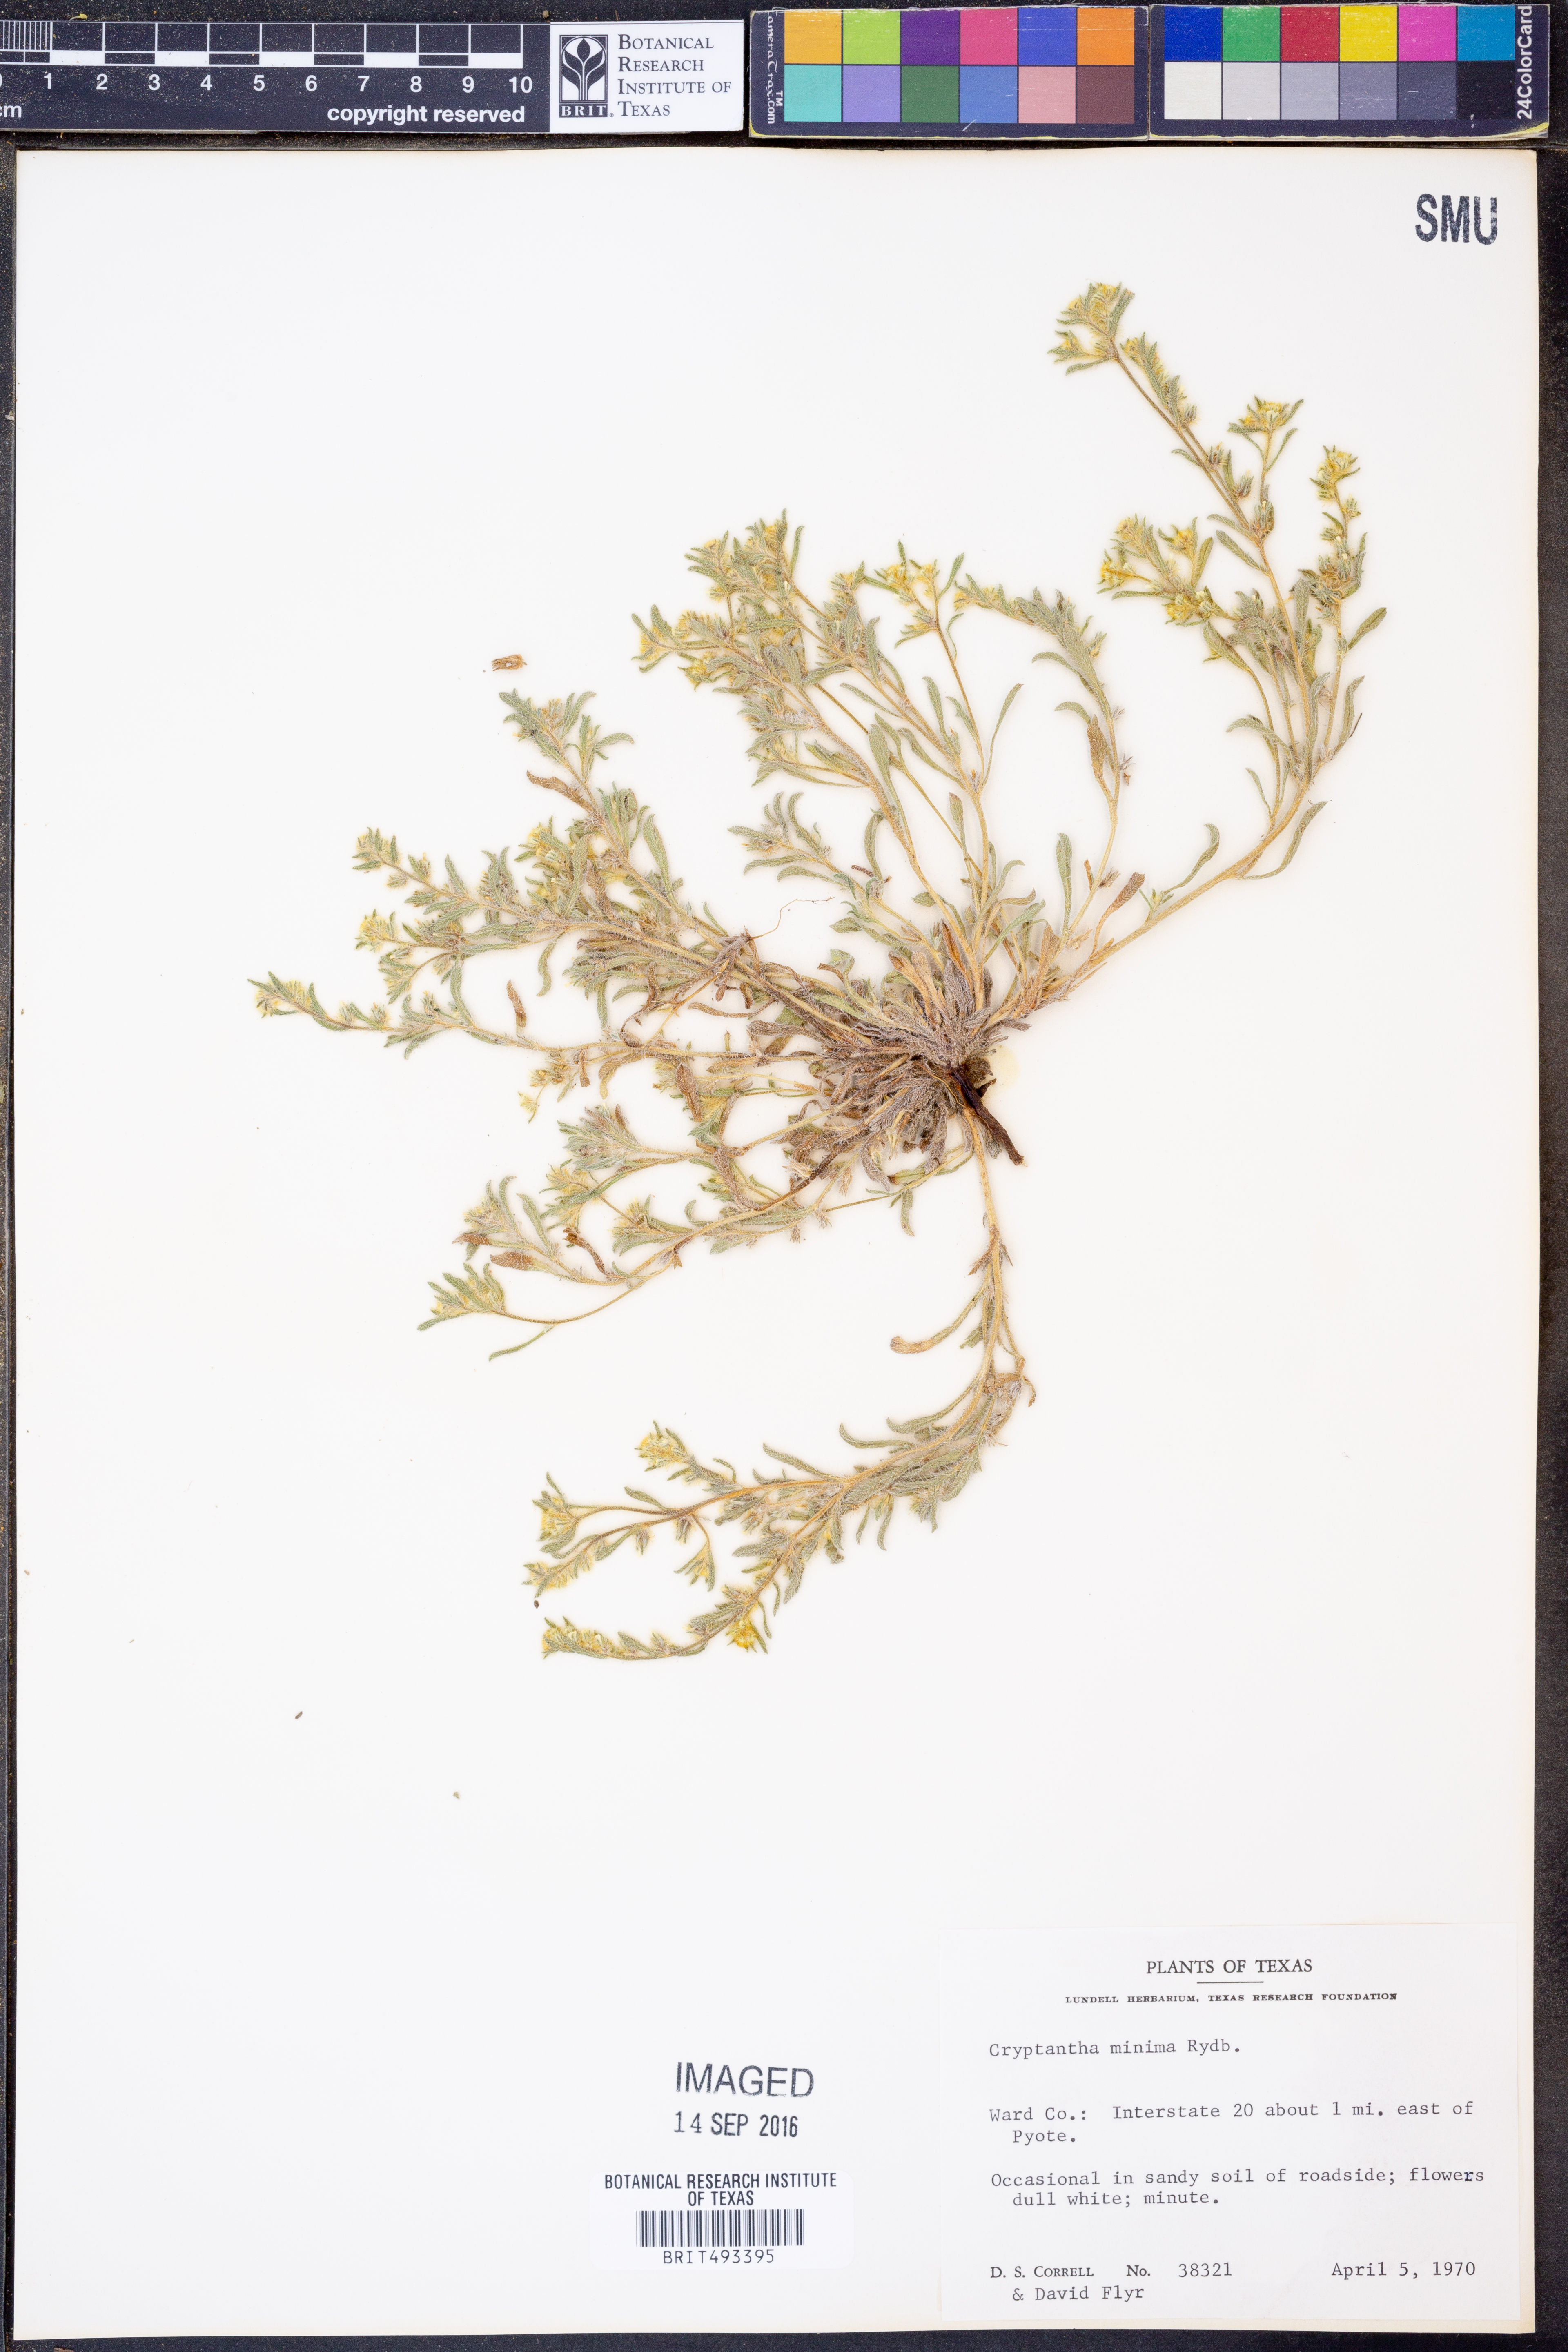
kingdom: Plantae
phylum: Tracheophyta
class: Magnoliopsida
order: Boraginales
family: Boraginaceae
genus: Cryptantha
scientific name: Cryptantha minima
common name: Little cat's-eye
